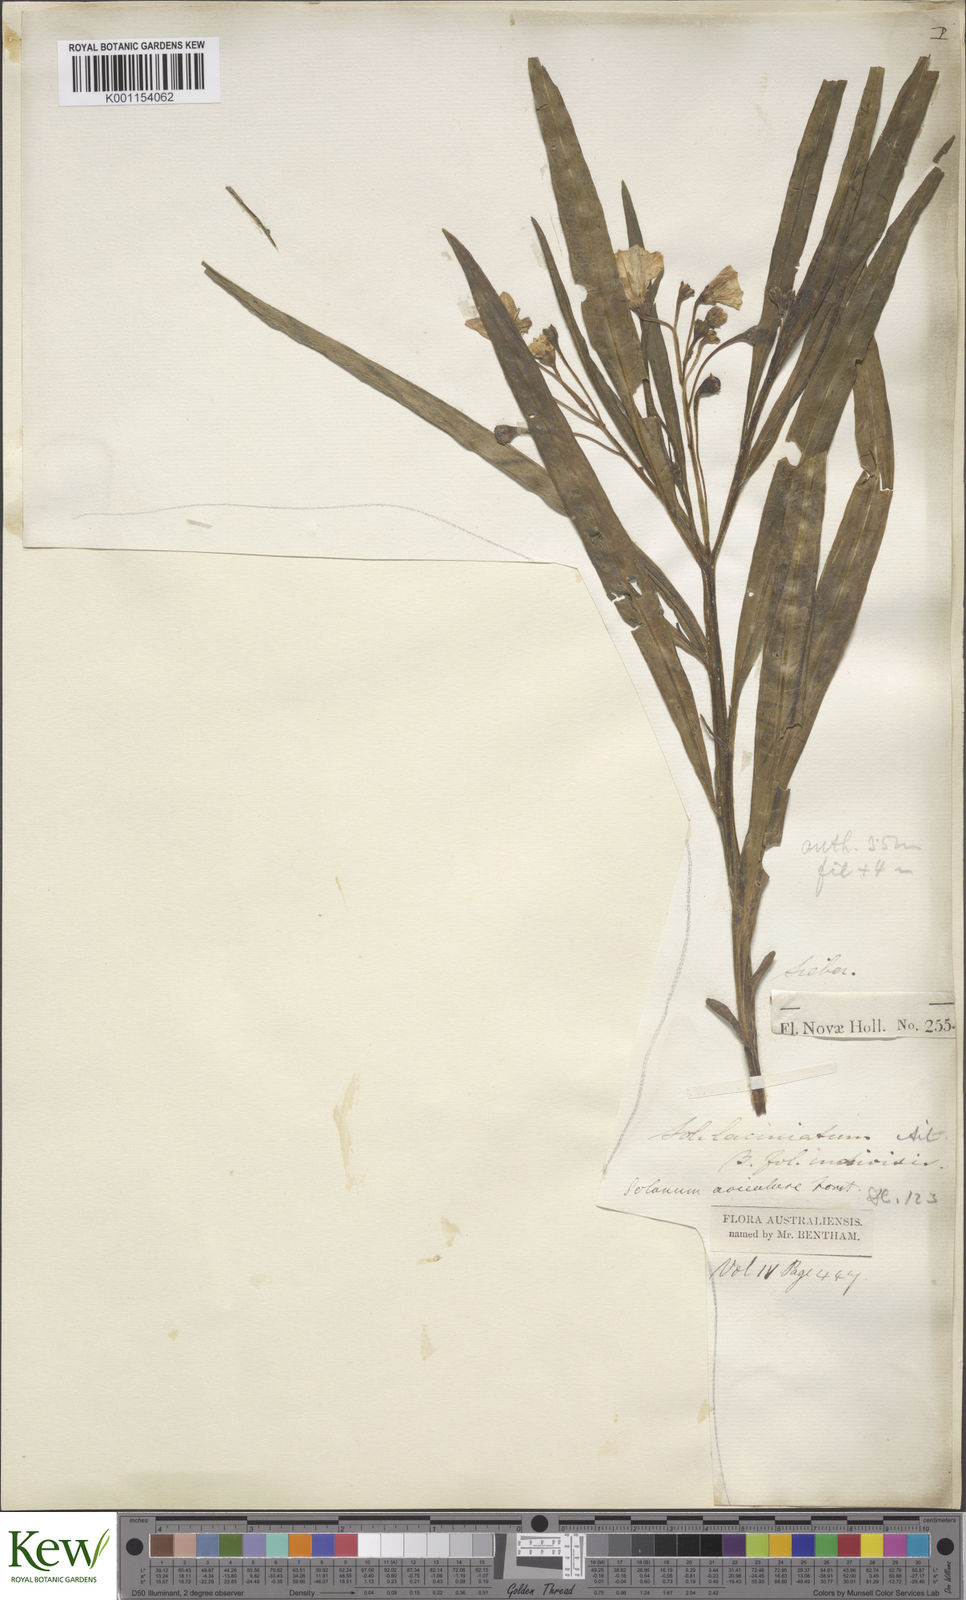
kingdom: Plantae
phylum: Tracheophyta
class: Magnoliopsida
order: Solanales
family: Solanaceae
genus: Solanum
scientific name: Solanum vescum
